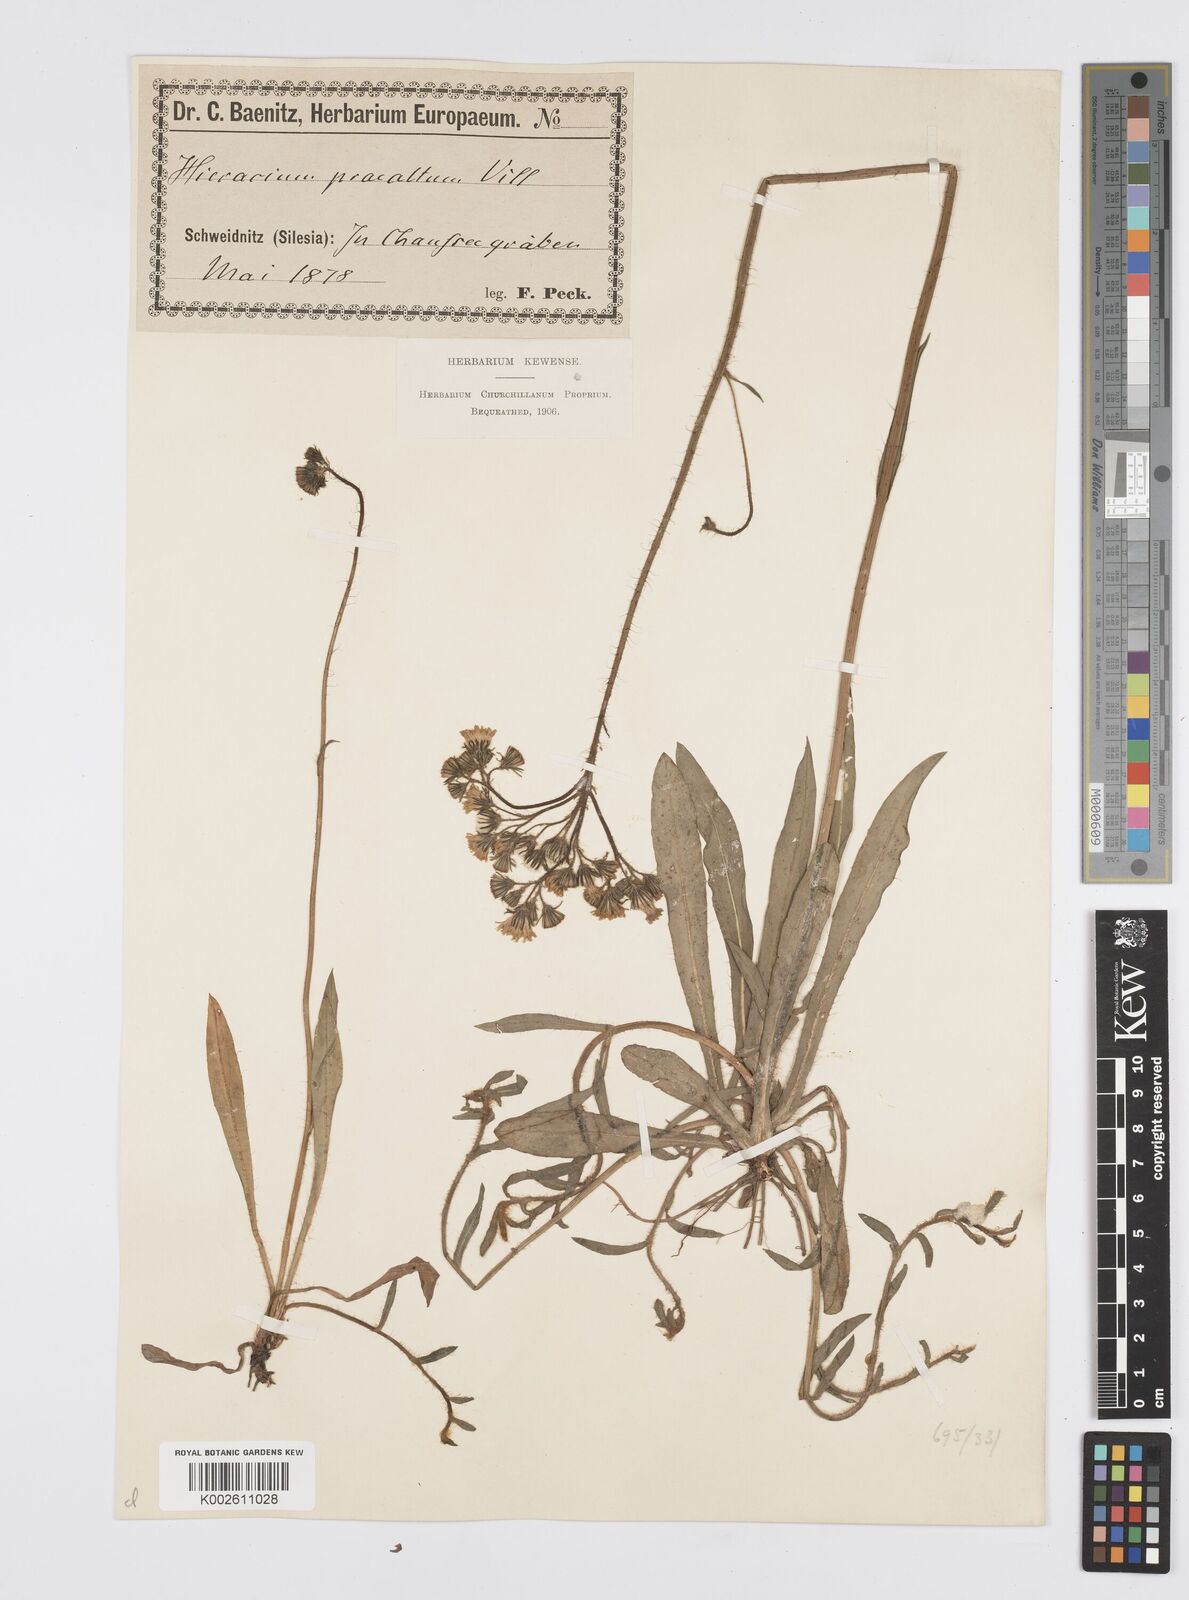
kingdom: Plantae
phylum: Tracheophyta
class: Magnoliopsida
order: Asterales
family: Asteraceae
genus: Pilosella
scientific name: Pilosella piloselloides
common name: Glaucous king-devil
